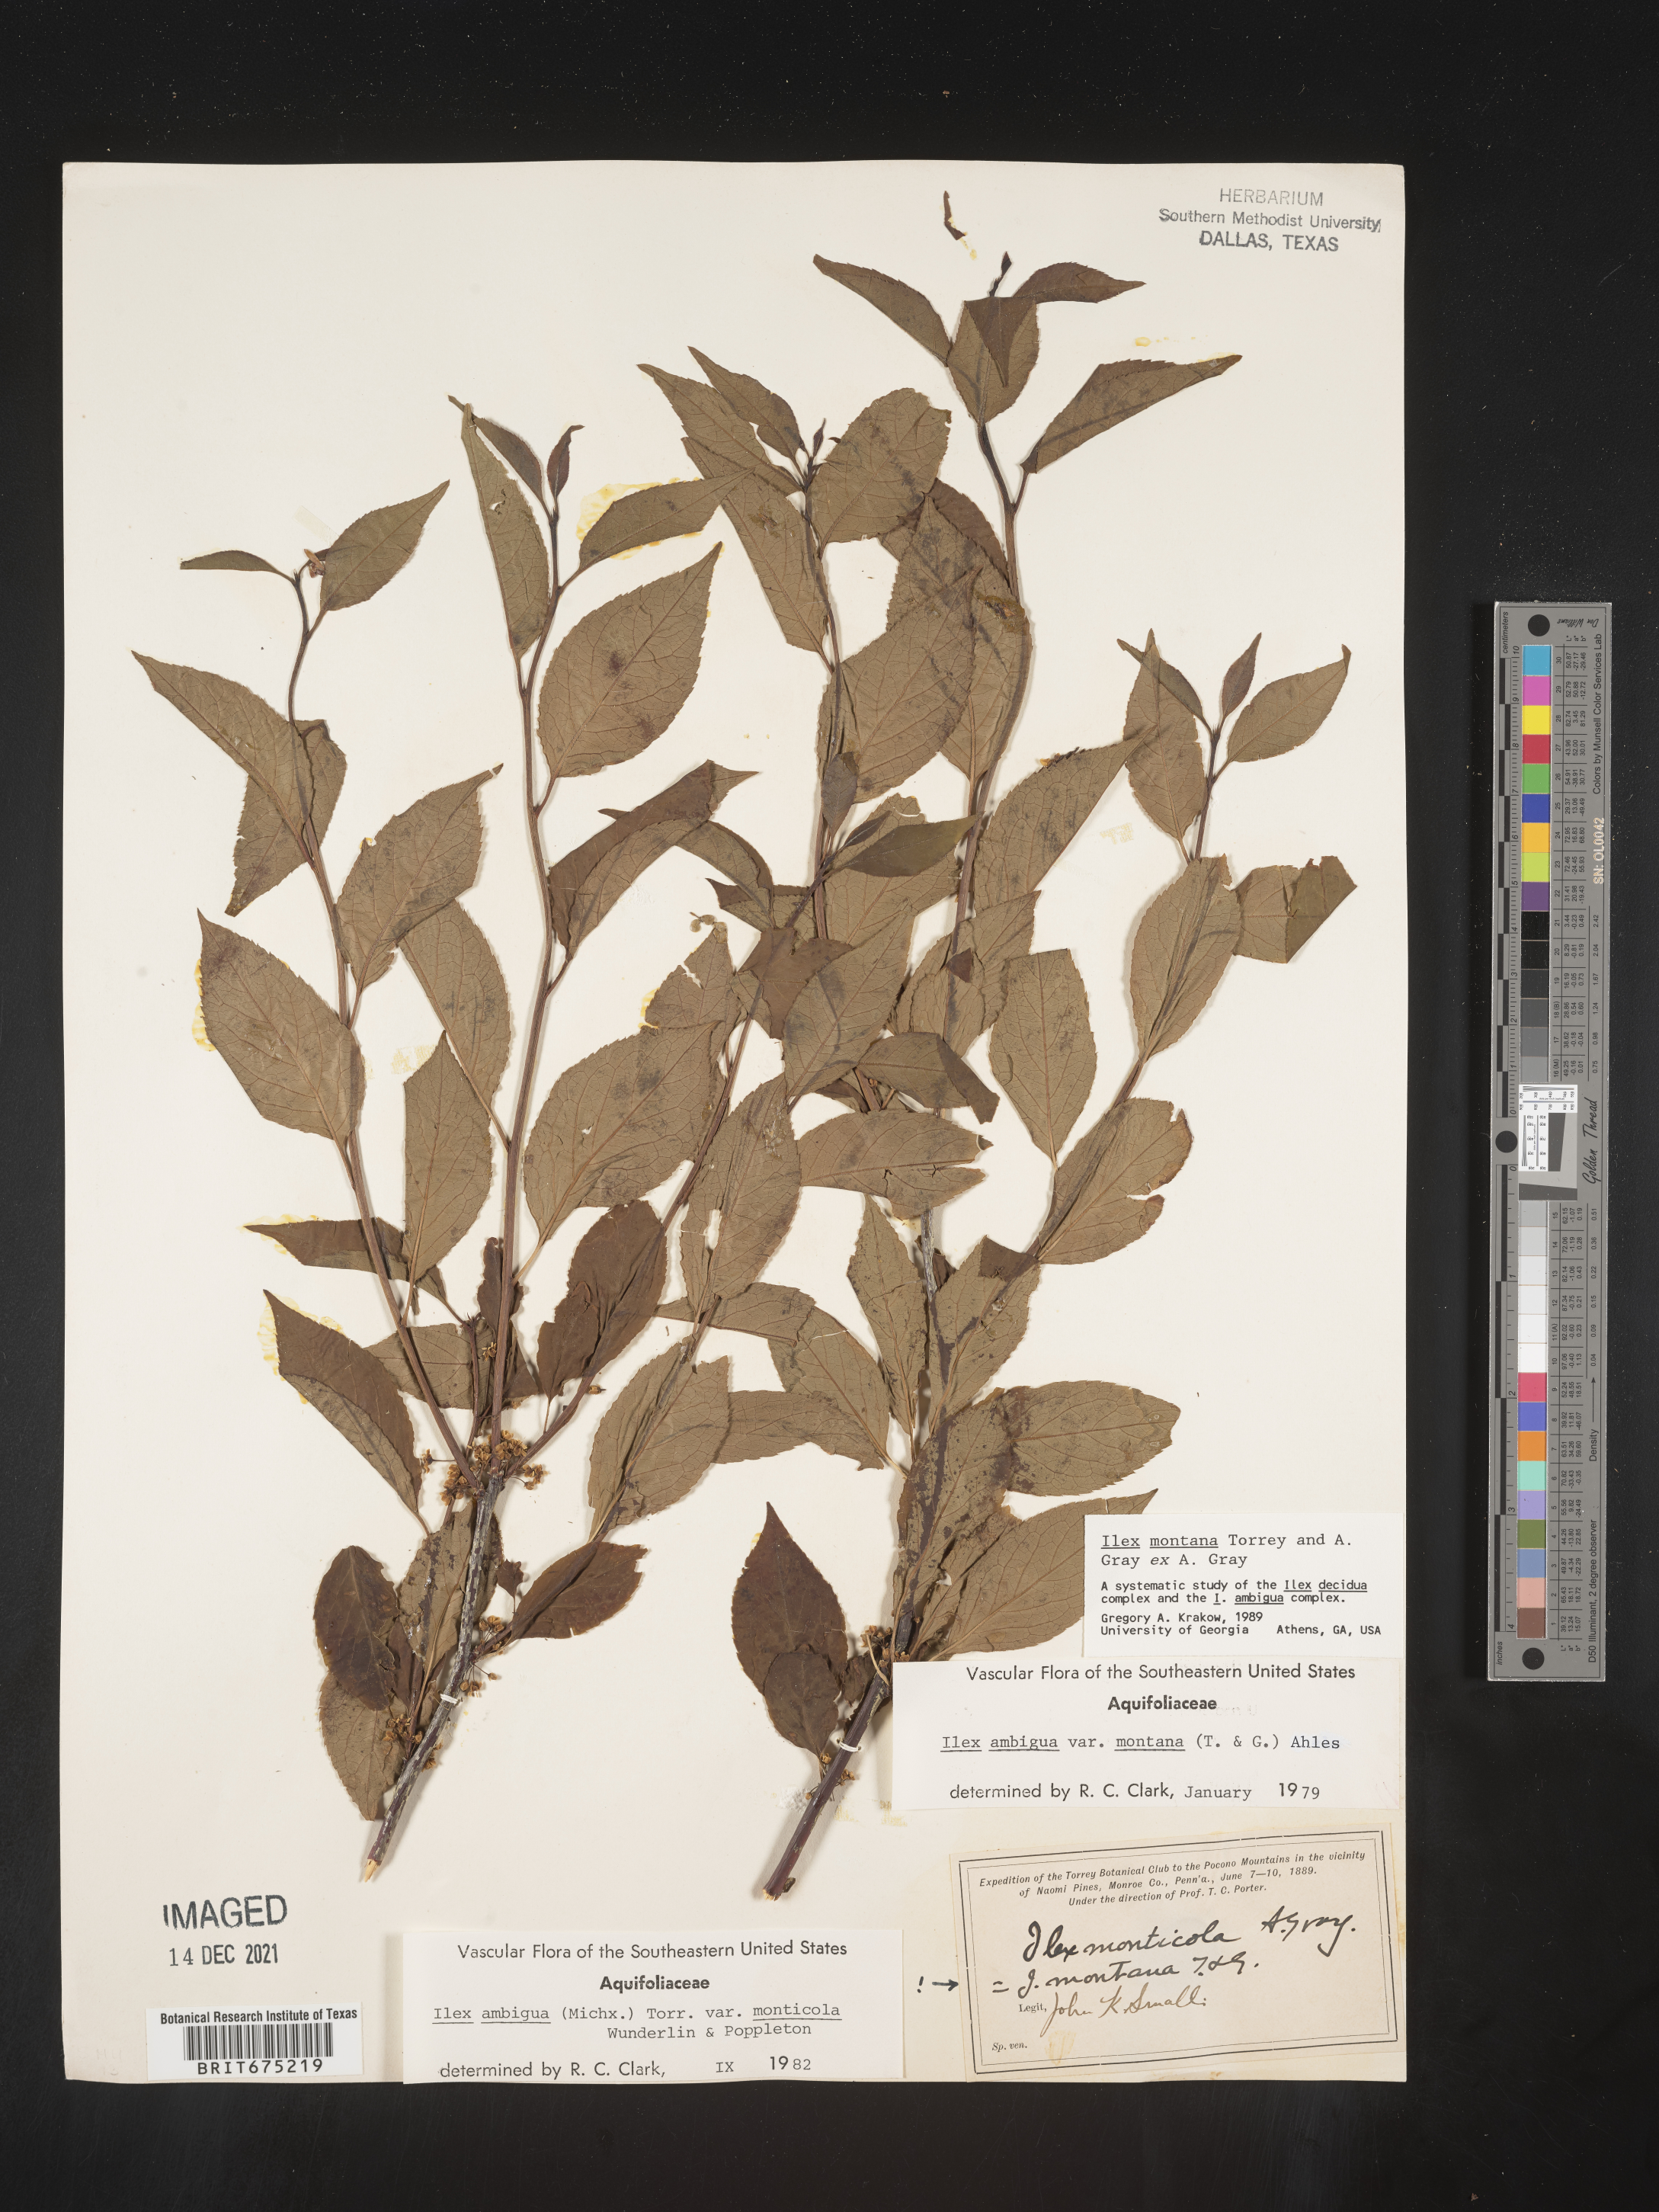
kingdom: Plantae
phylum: Tracheophyta
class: Magnoliopsida
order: Aquifoliales
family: Aquifoliaceae
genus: Ilex
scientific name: Ilex montana
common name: Mountain winterberry
